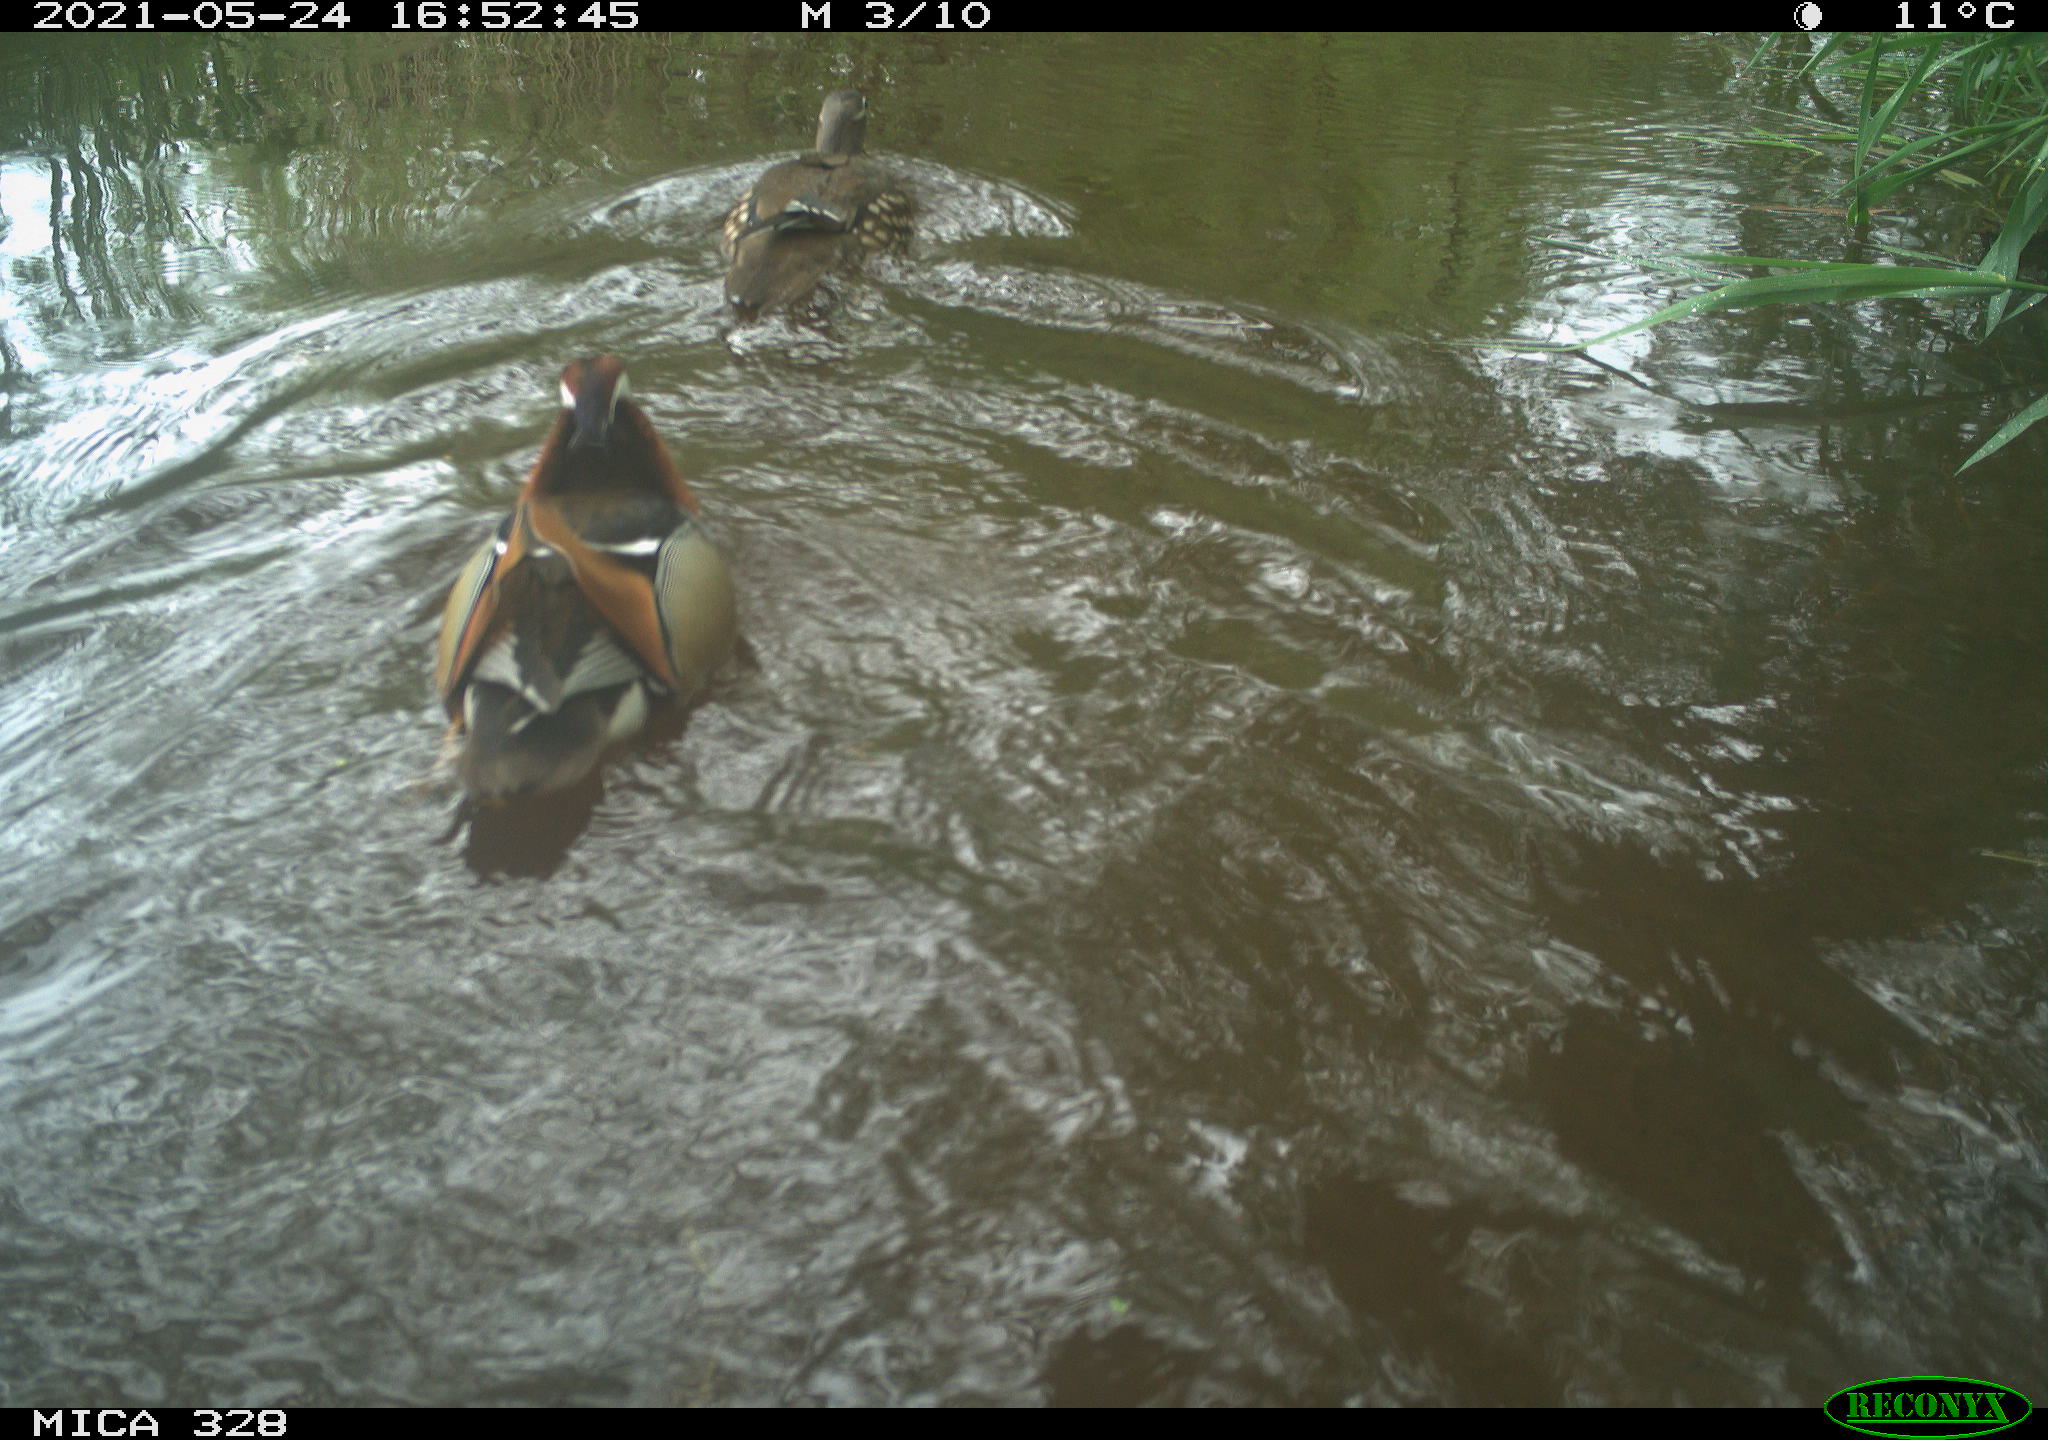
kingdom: Animalia
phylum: Chordata
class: Aves
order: Anseriformes
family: Anatidae
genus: Aix
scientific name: Aix galericulata
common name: Mandarin duck
